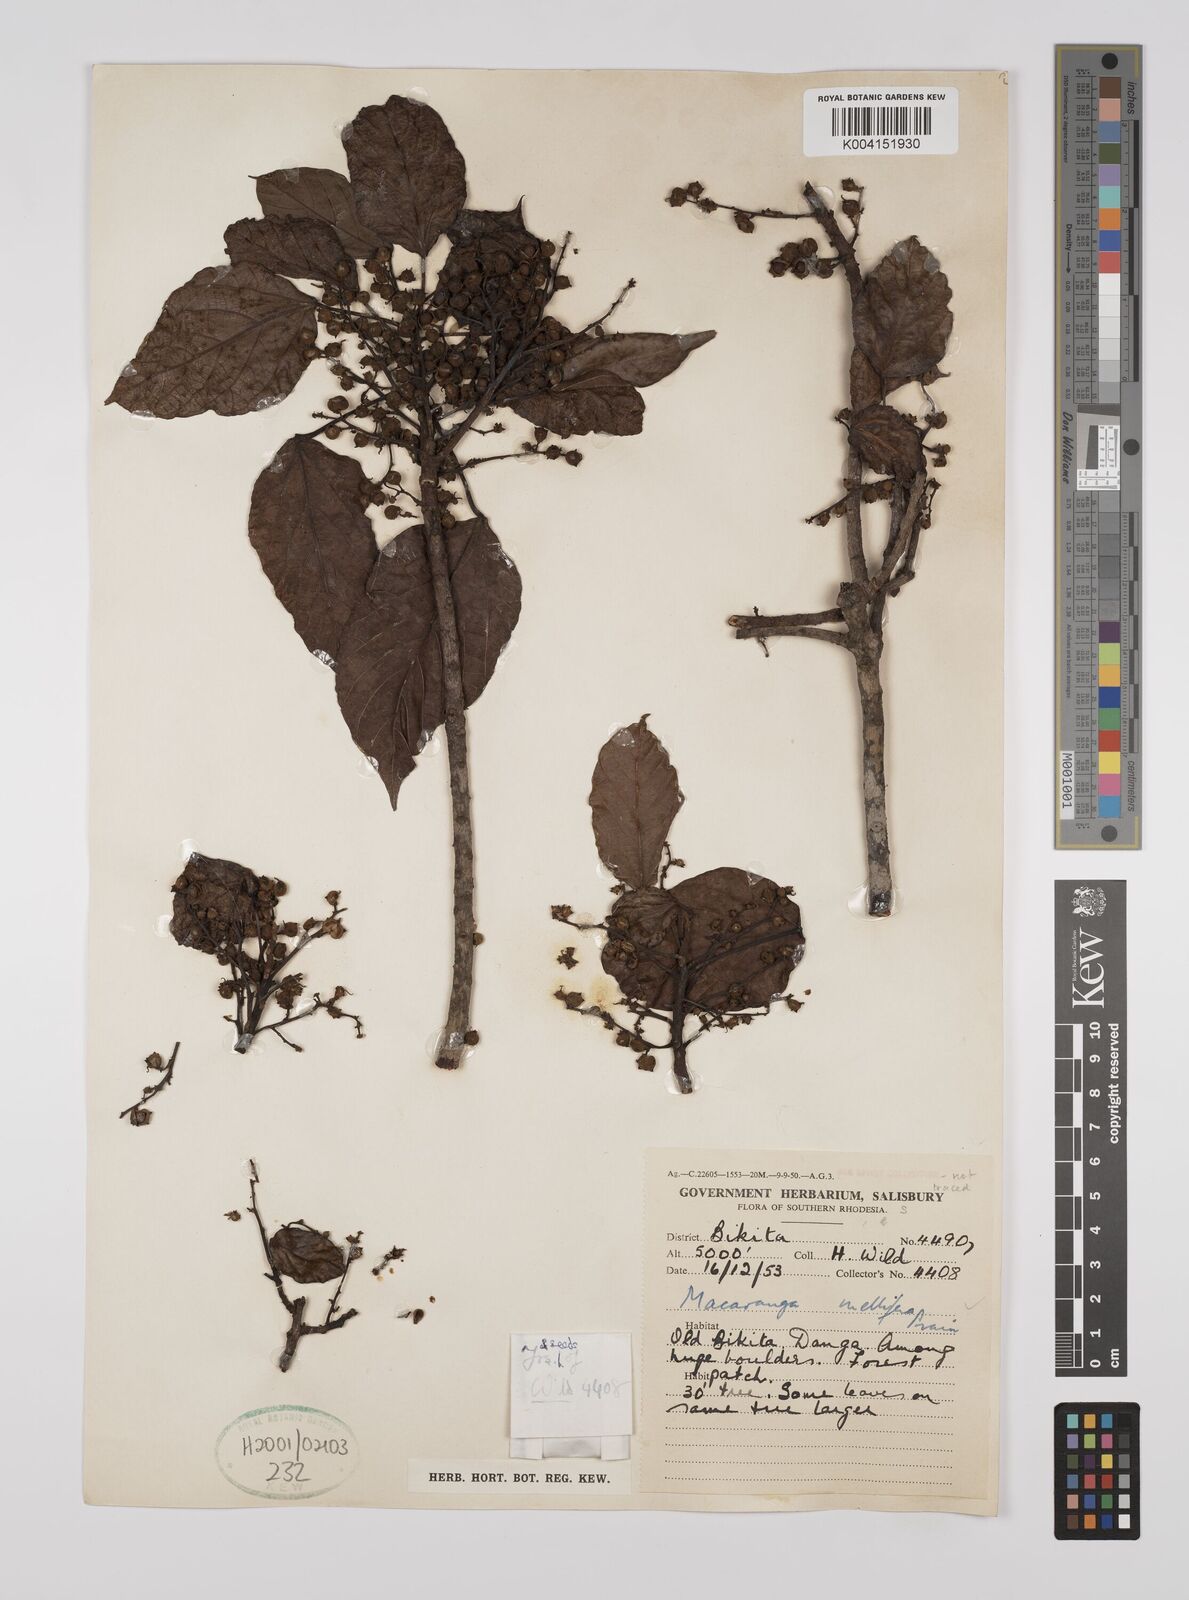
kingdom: Plantae
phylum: Tracheophyta
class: Magnoliopsida
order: Malpighiales
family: Euphorbiaceae
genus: Macaranga
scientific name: Macaranga mellifera
